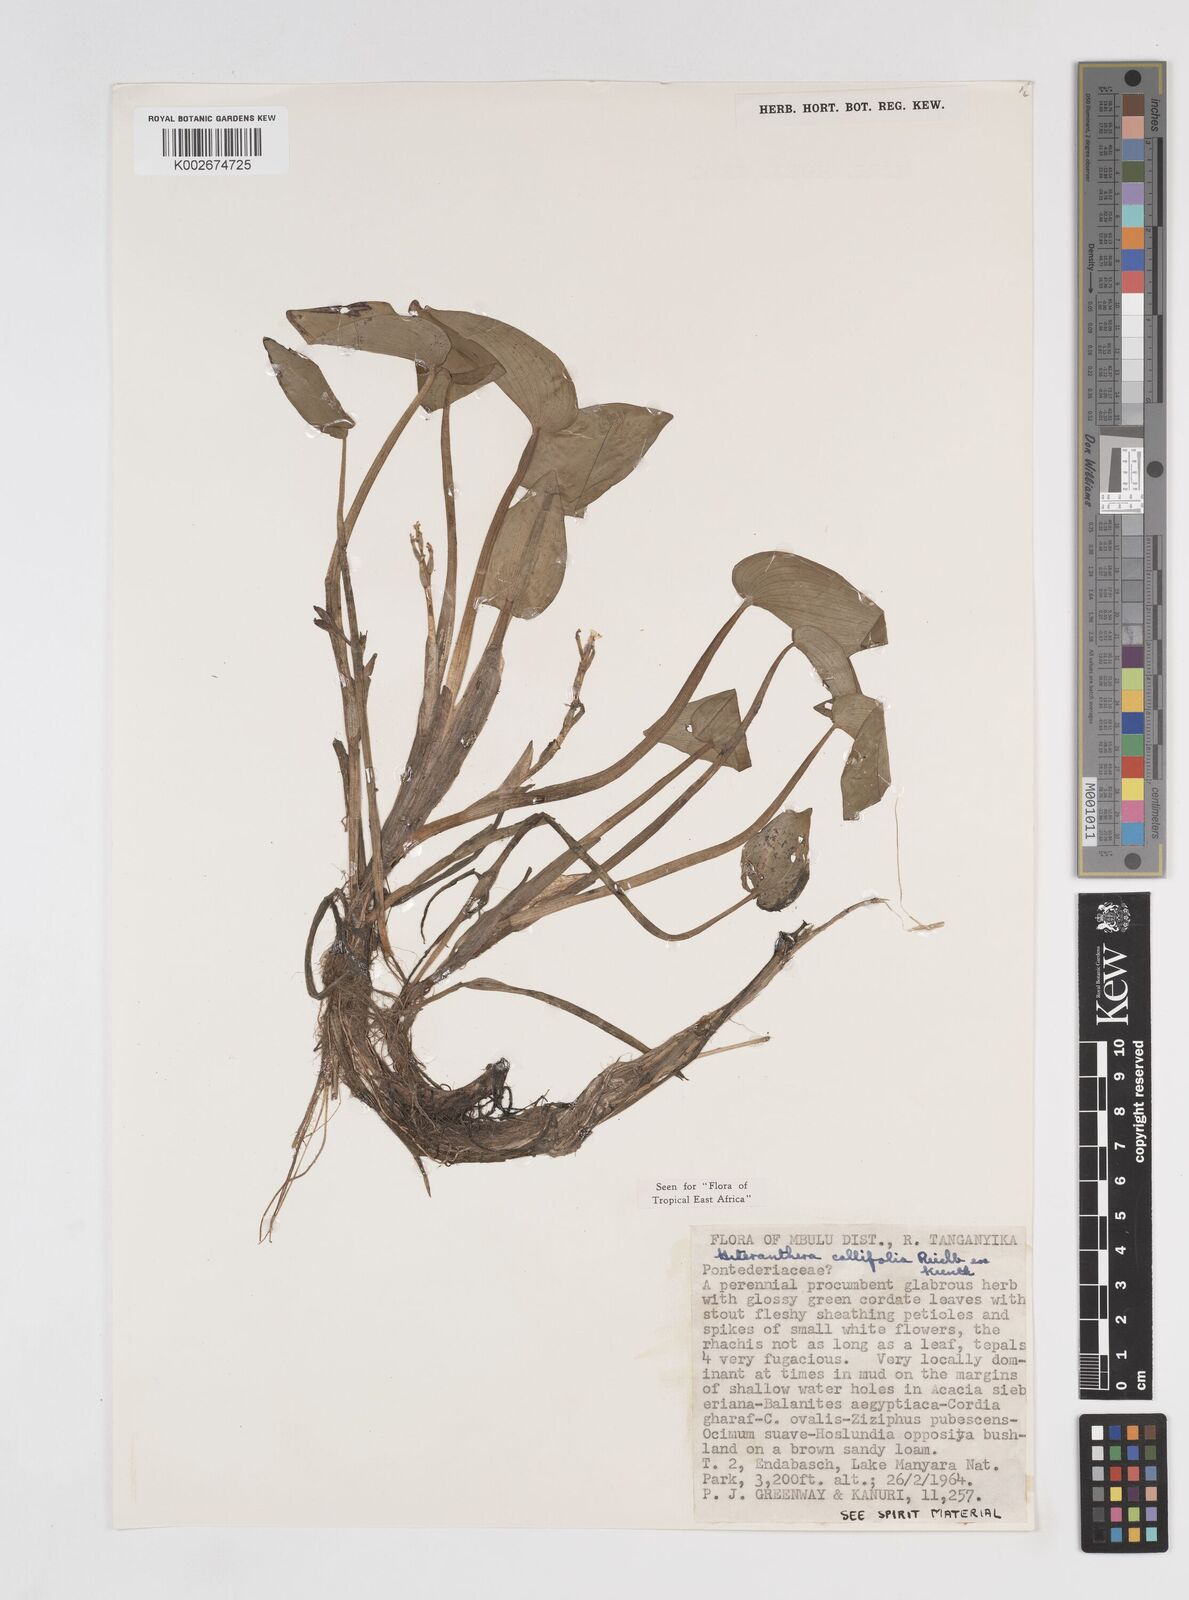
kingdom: Plantae
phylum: Tracheophyta
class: Liliopsida
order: Commelinales
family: Pontederiaceae
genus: Heteranthera
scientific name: Heteranthera callifolia
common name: Mud plantain
